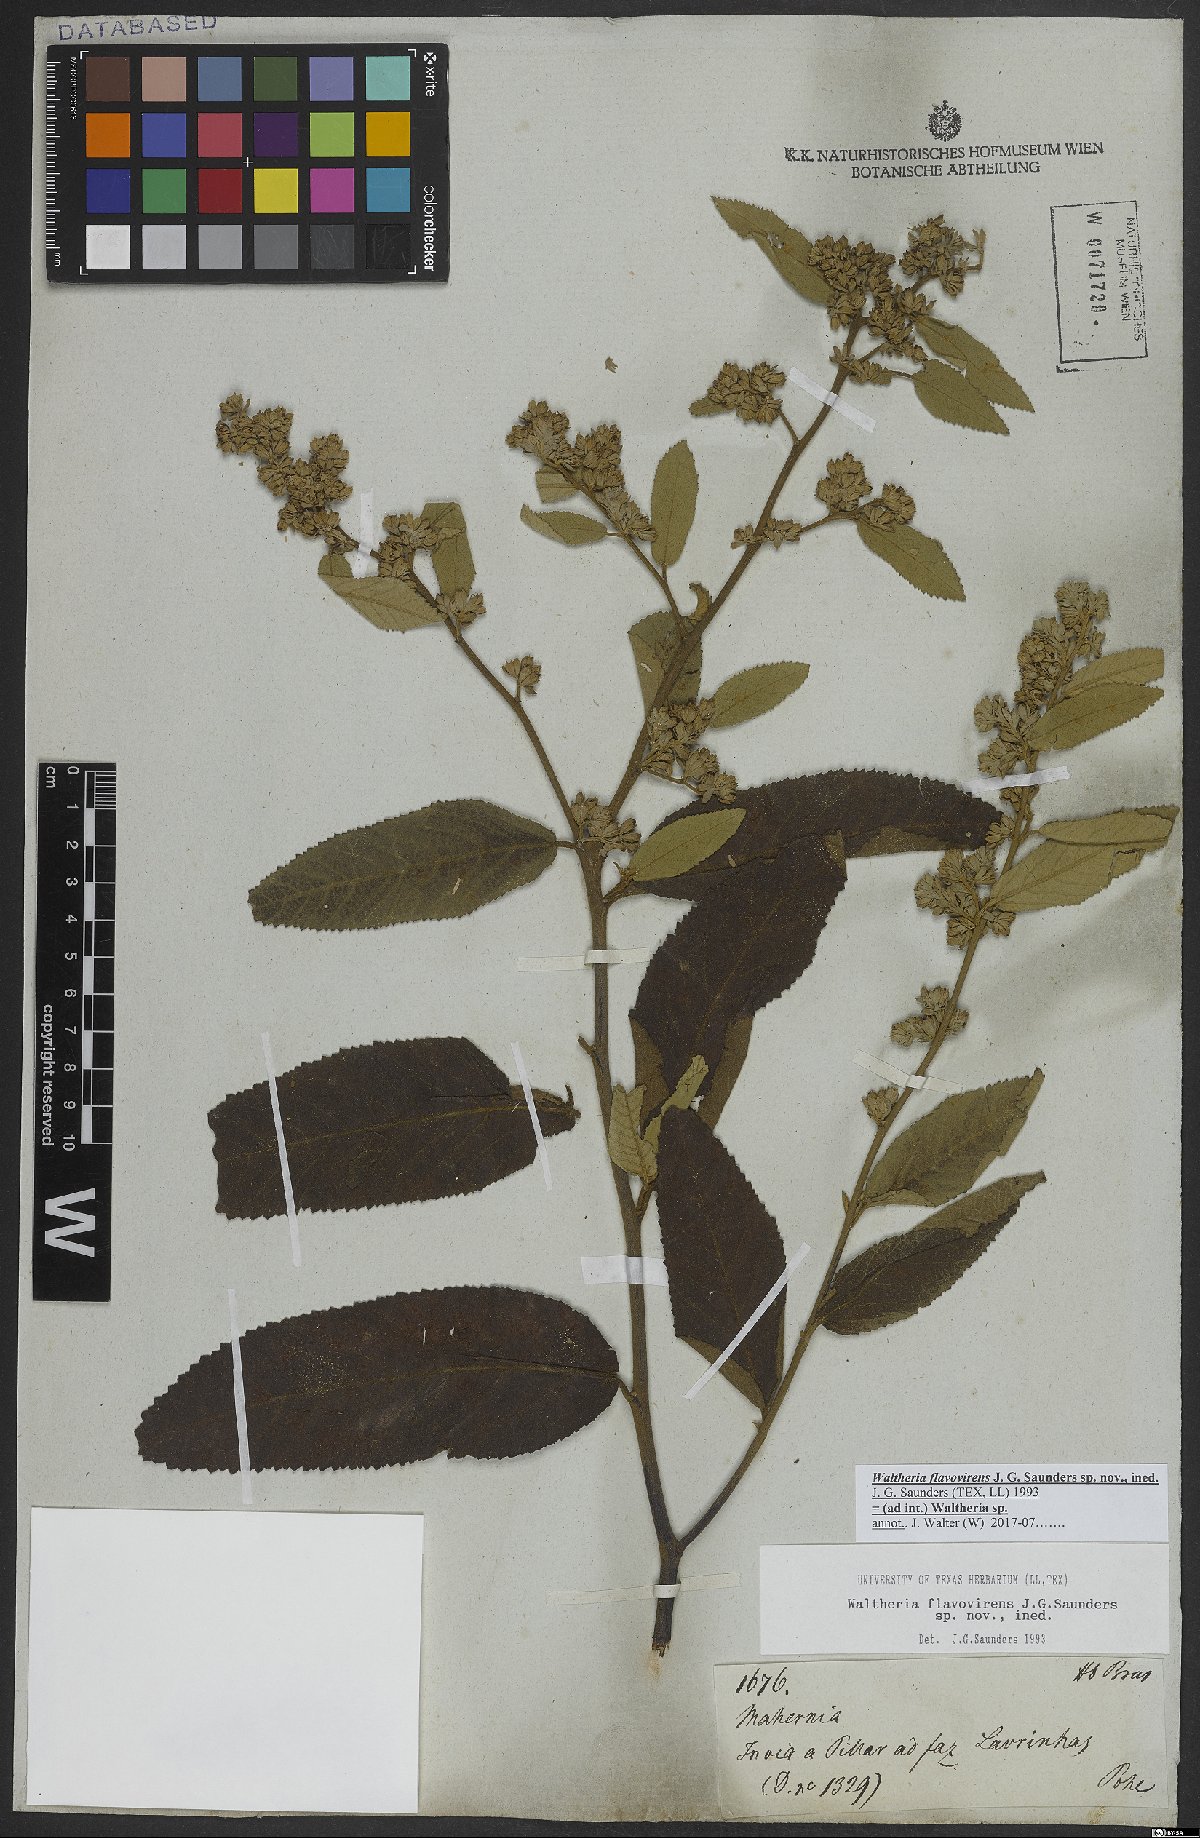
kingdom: Plantae
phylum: Tracheophyta
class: Magnoliopsida
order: Malvales
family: Malvaceae
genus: Waltheria
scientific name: Waltheria
